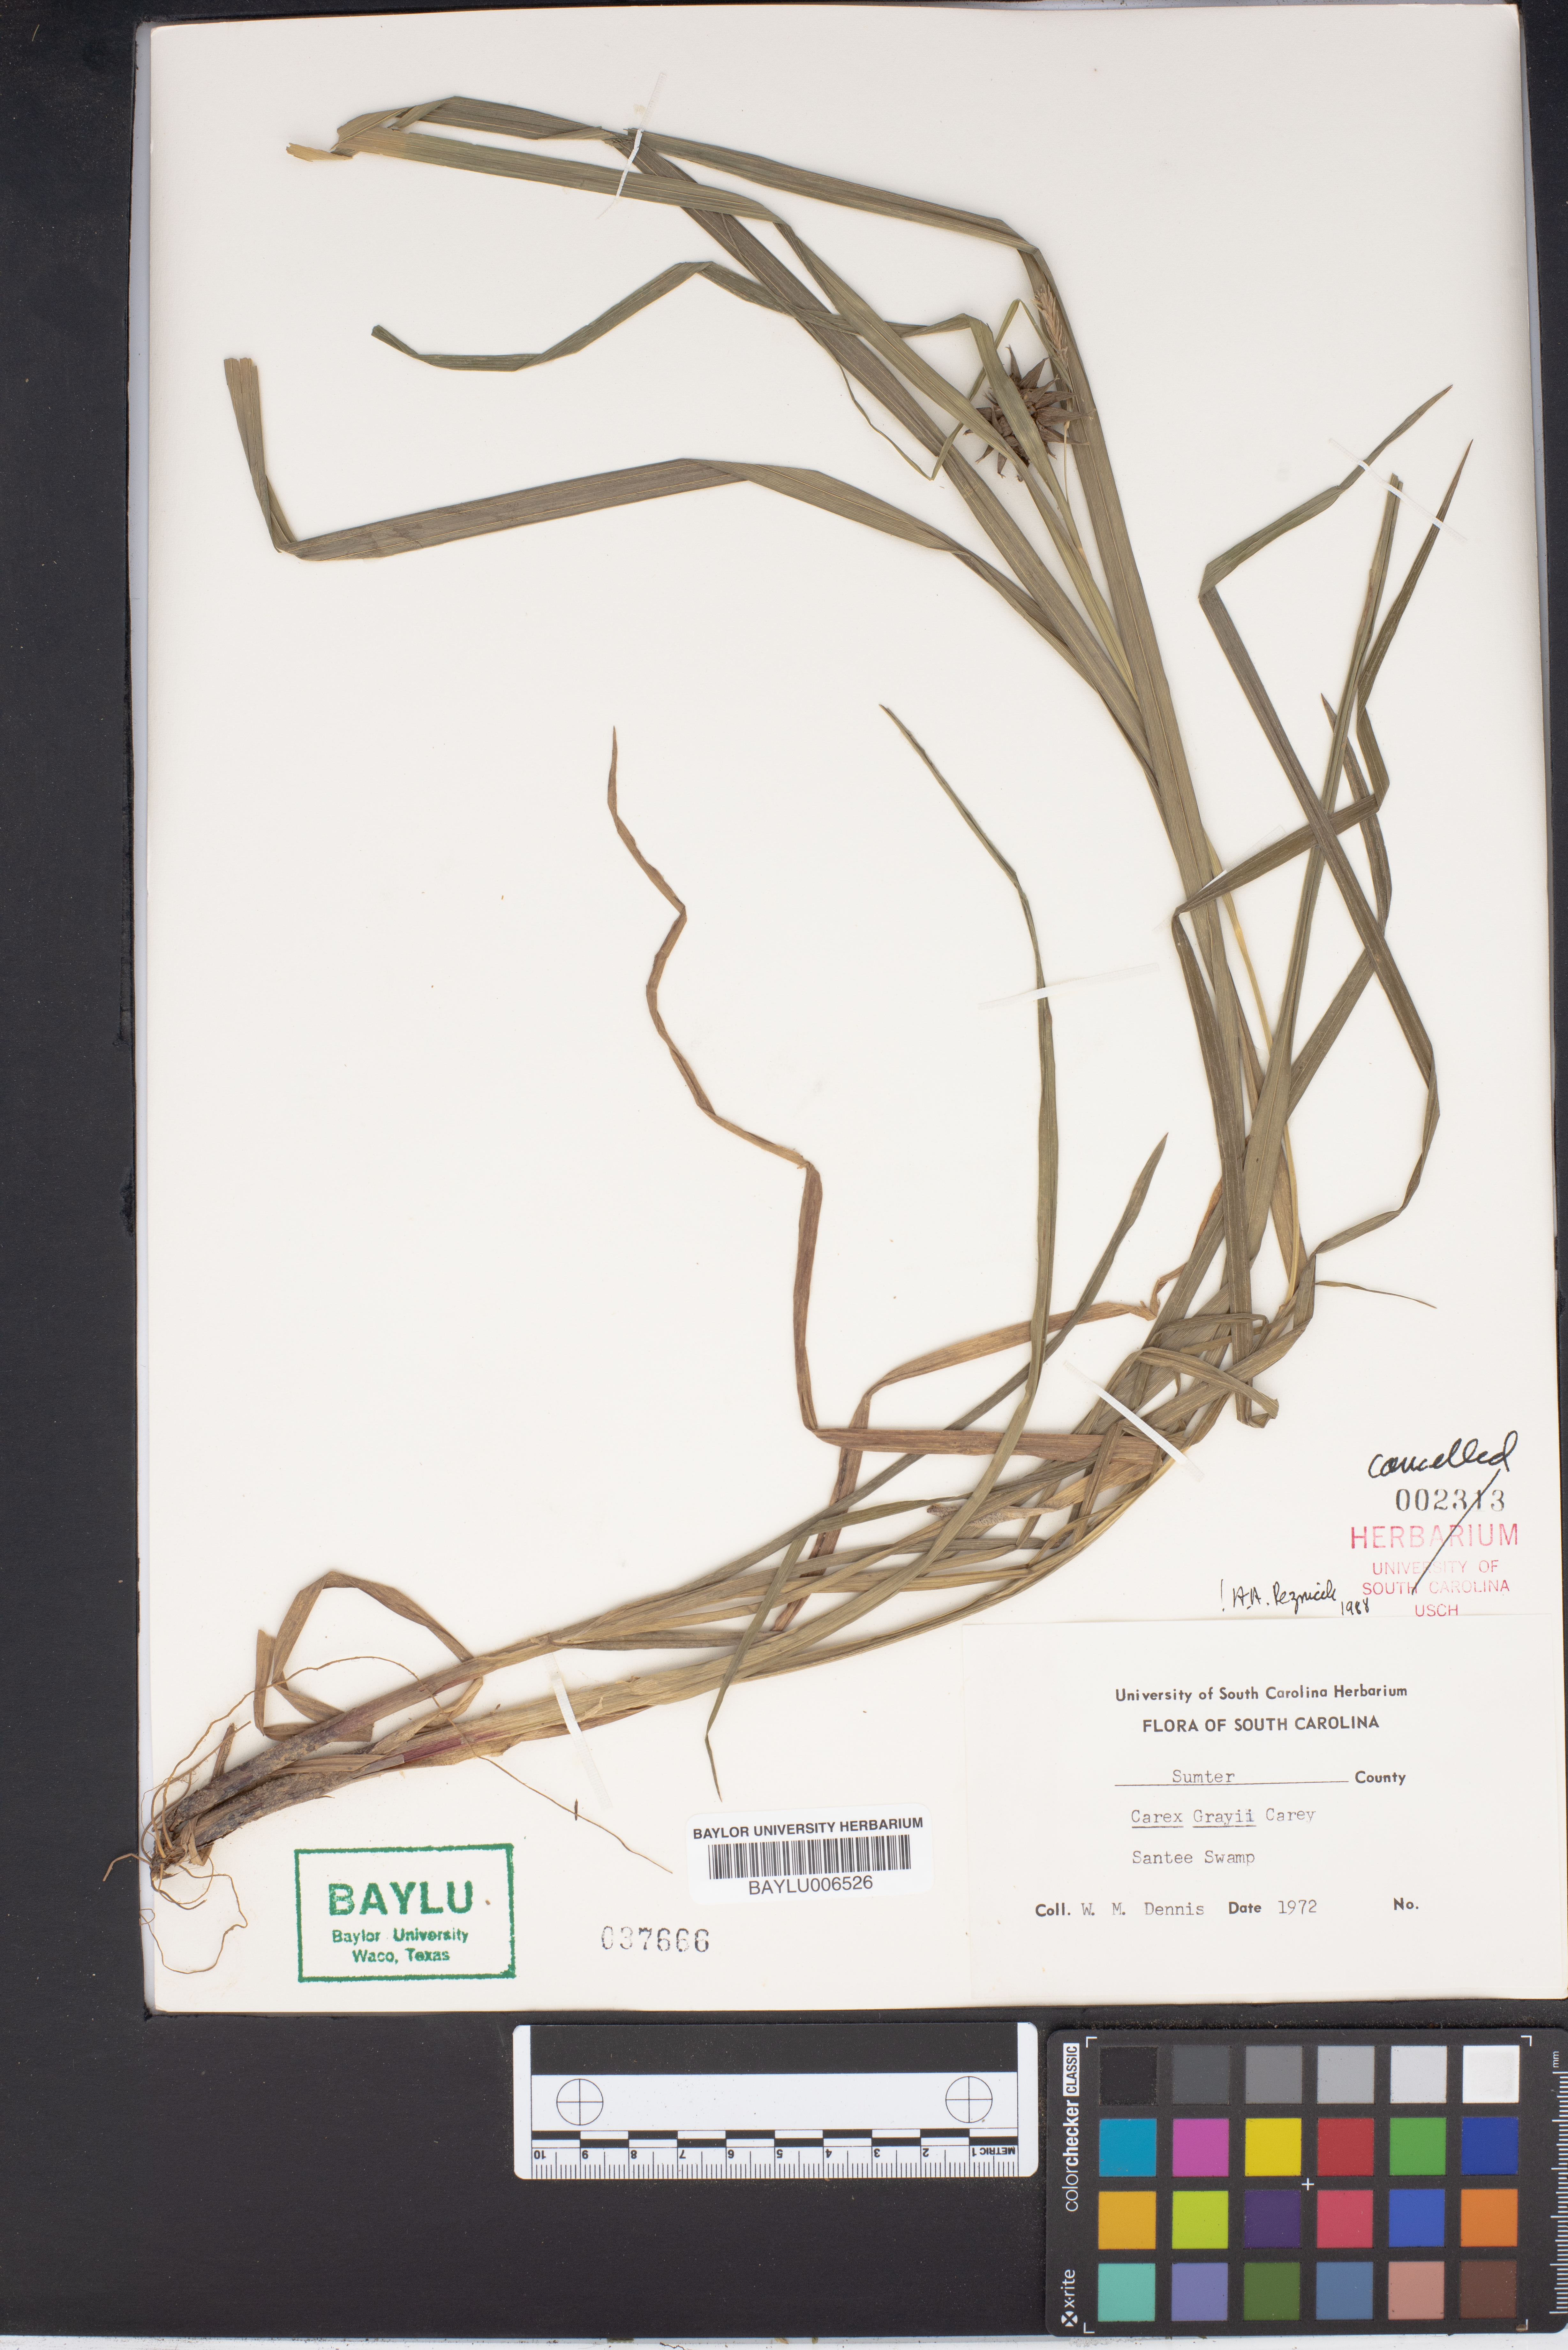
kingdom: Plantae
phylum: Tracheophyta
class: Liliopsida
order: Poales
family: Cyperaceae
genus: Carex
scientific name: Carex grayi
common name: Asa gray's sedge
